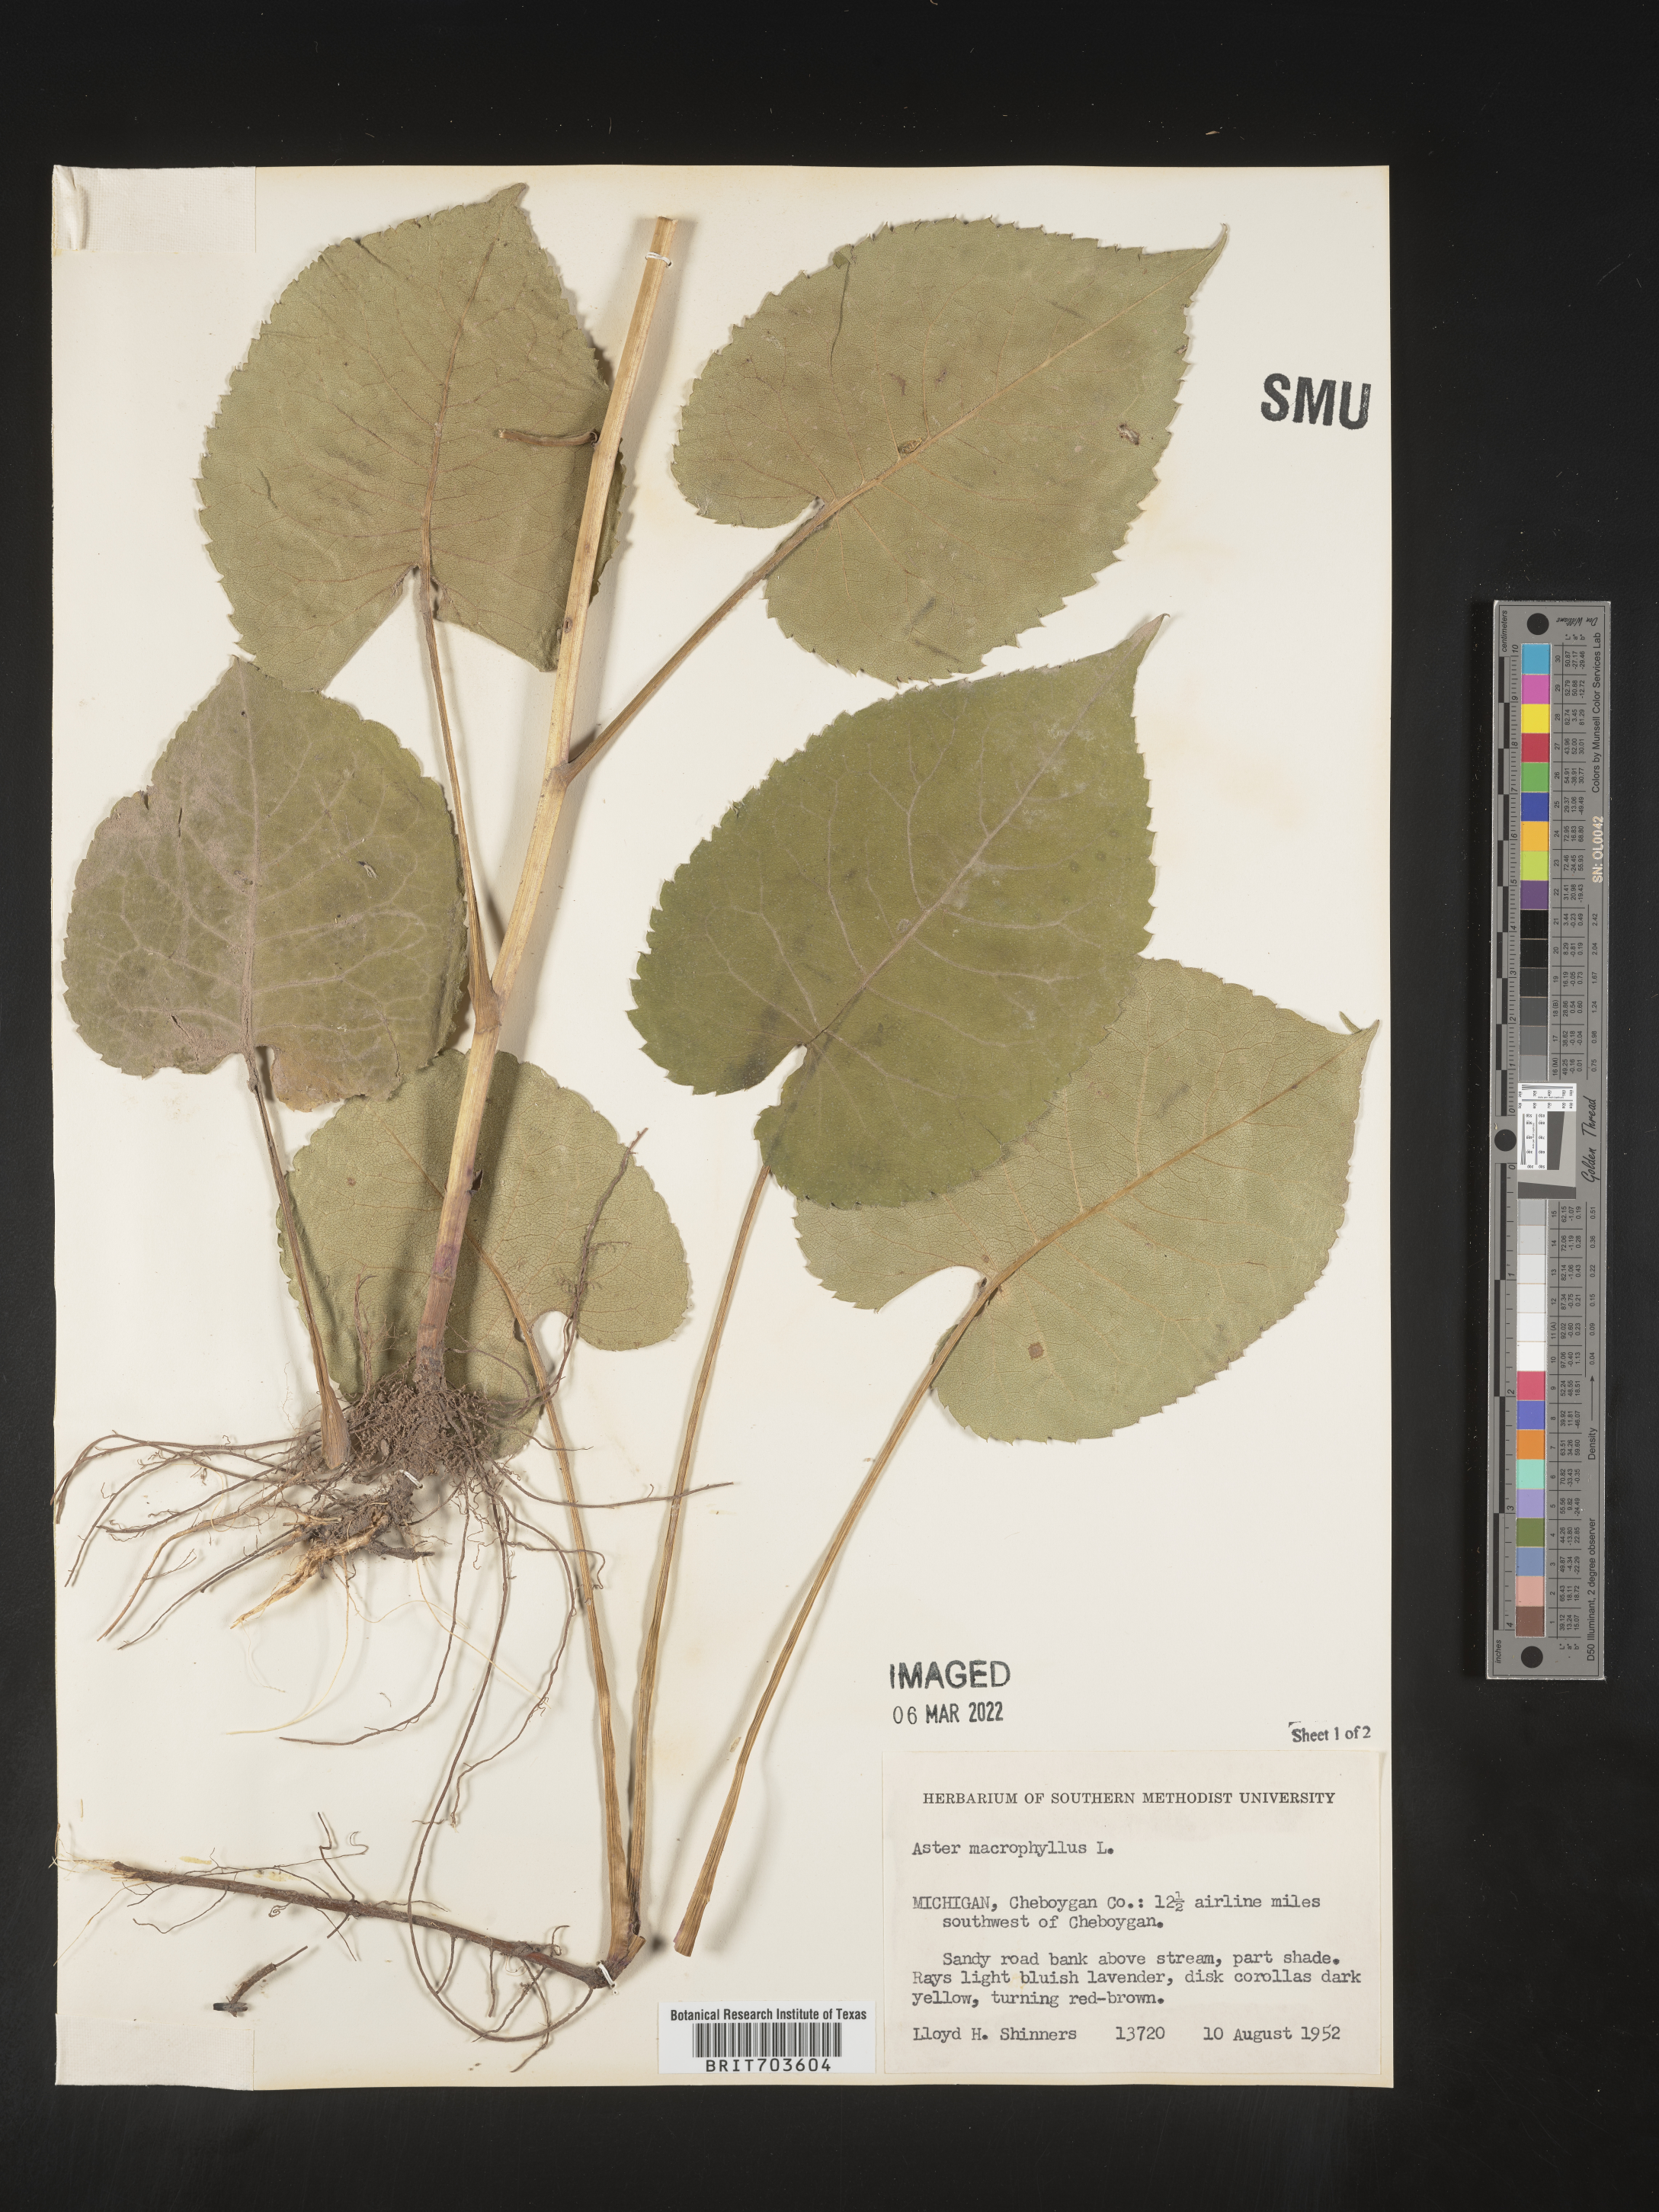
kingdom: Plantae
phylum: Tracheophyta
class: Magnoliopsida
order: Asterales
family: Asteraceae
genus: Eurybia
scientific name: Eurybia macrophylla
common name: Big-leaved aster
